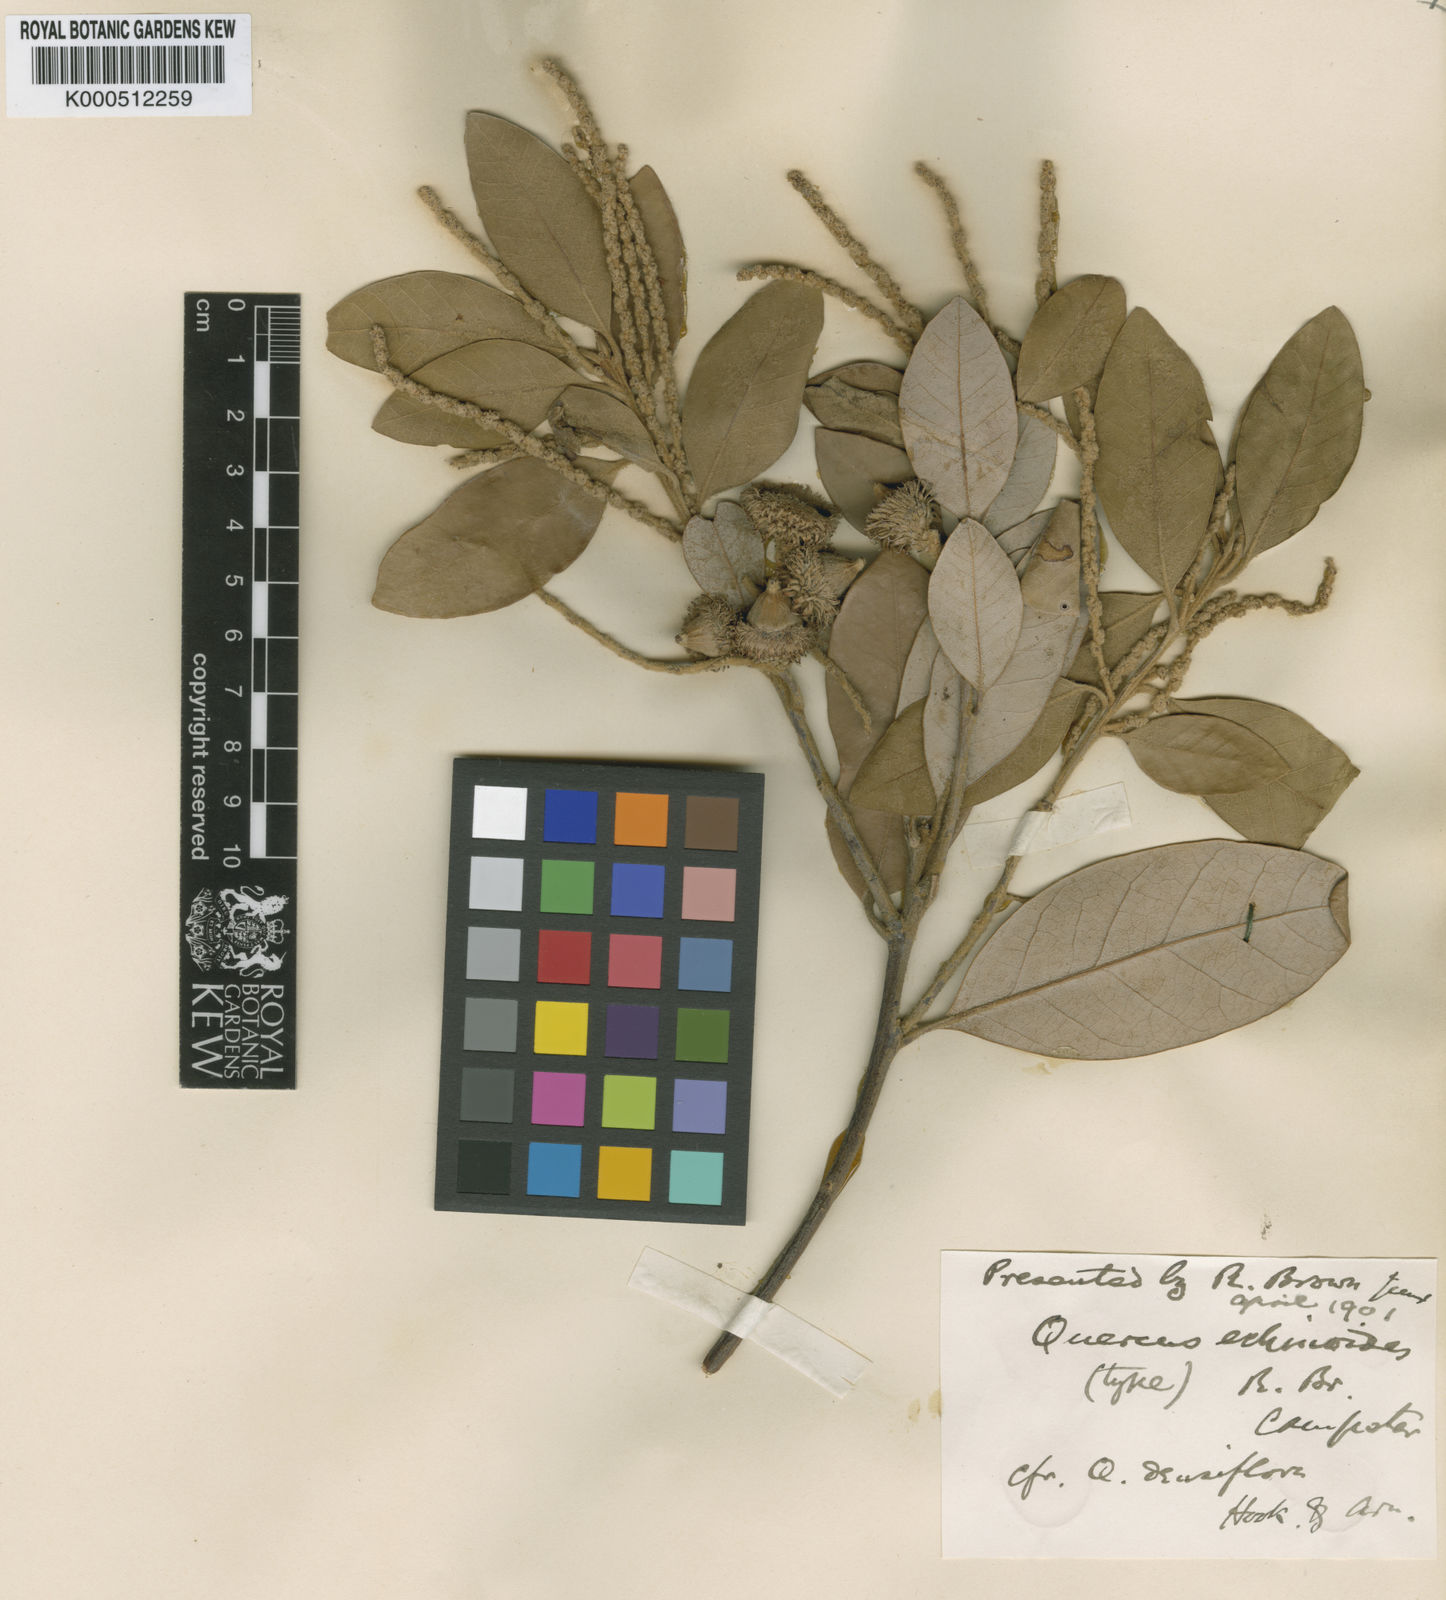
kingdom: Plantae
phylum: Tracheophyta
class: Magnoliopsida
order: Fagales
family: Fagaceae
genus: Notholithocarpus
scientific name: Notholithocarpus
